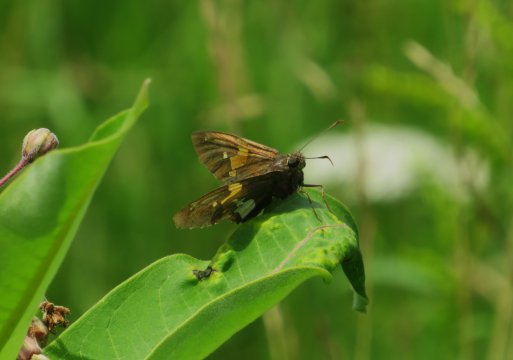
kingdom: Animalia
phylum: Arthropoda
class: Insecta
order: Lepidoptera
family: Hesperiidae
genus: Epargyreus
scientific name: Epargyreus clarus
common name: Silver-spotted Skipper
